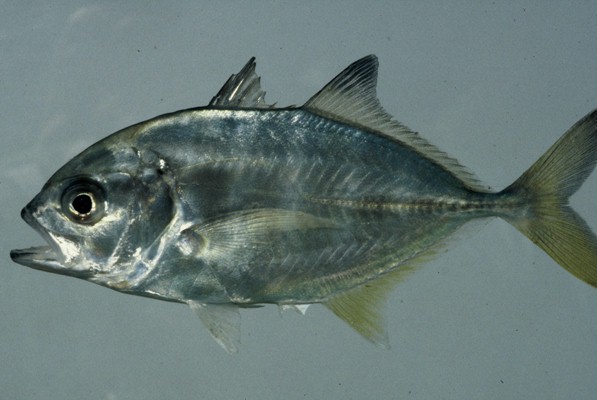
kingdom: Animalia
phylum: Chordata
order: Perciformes
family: Carangidae
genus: Caranx
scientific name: Caranx sexfasciatus
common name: Bigeye trevally
